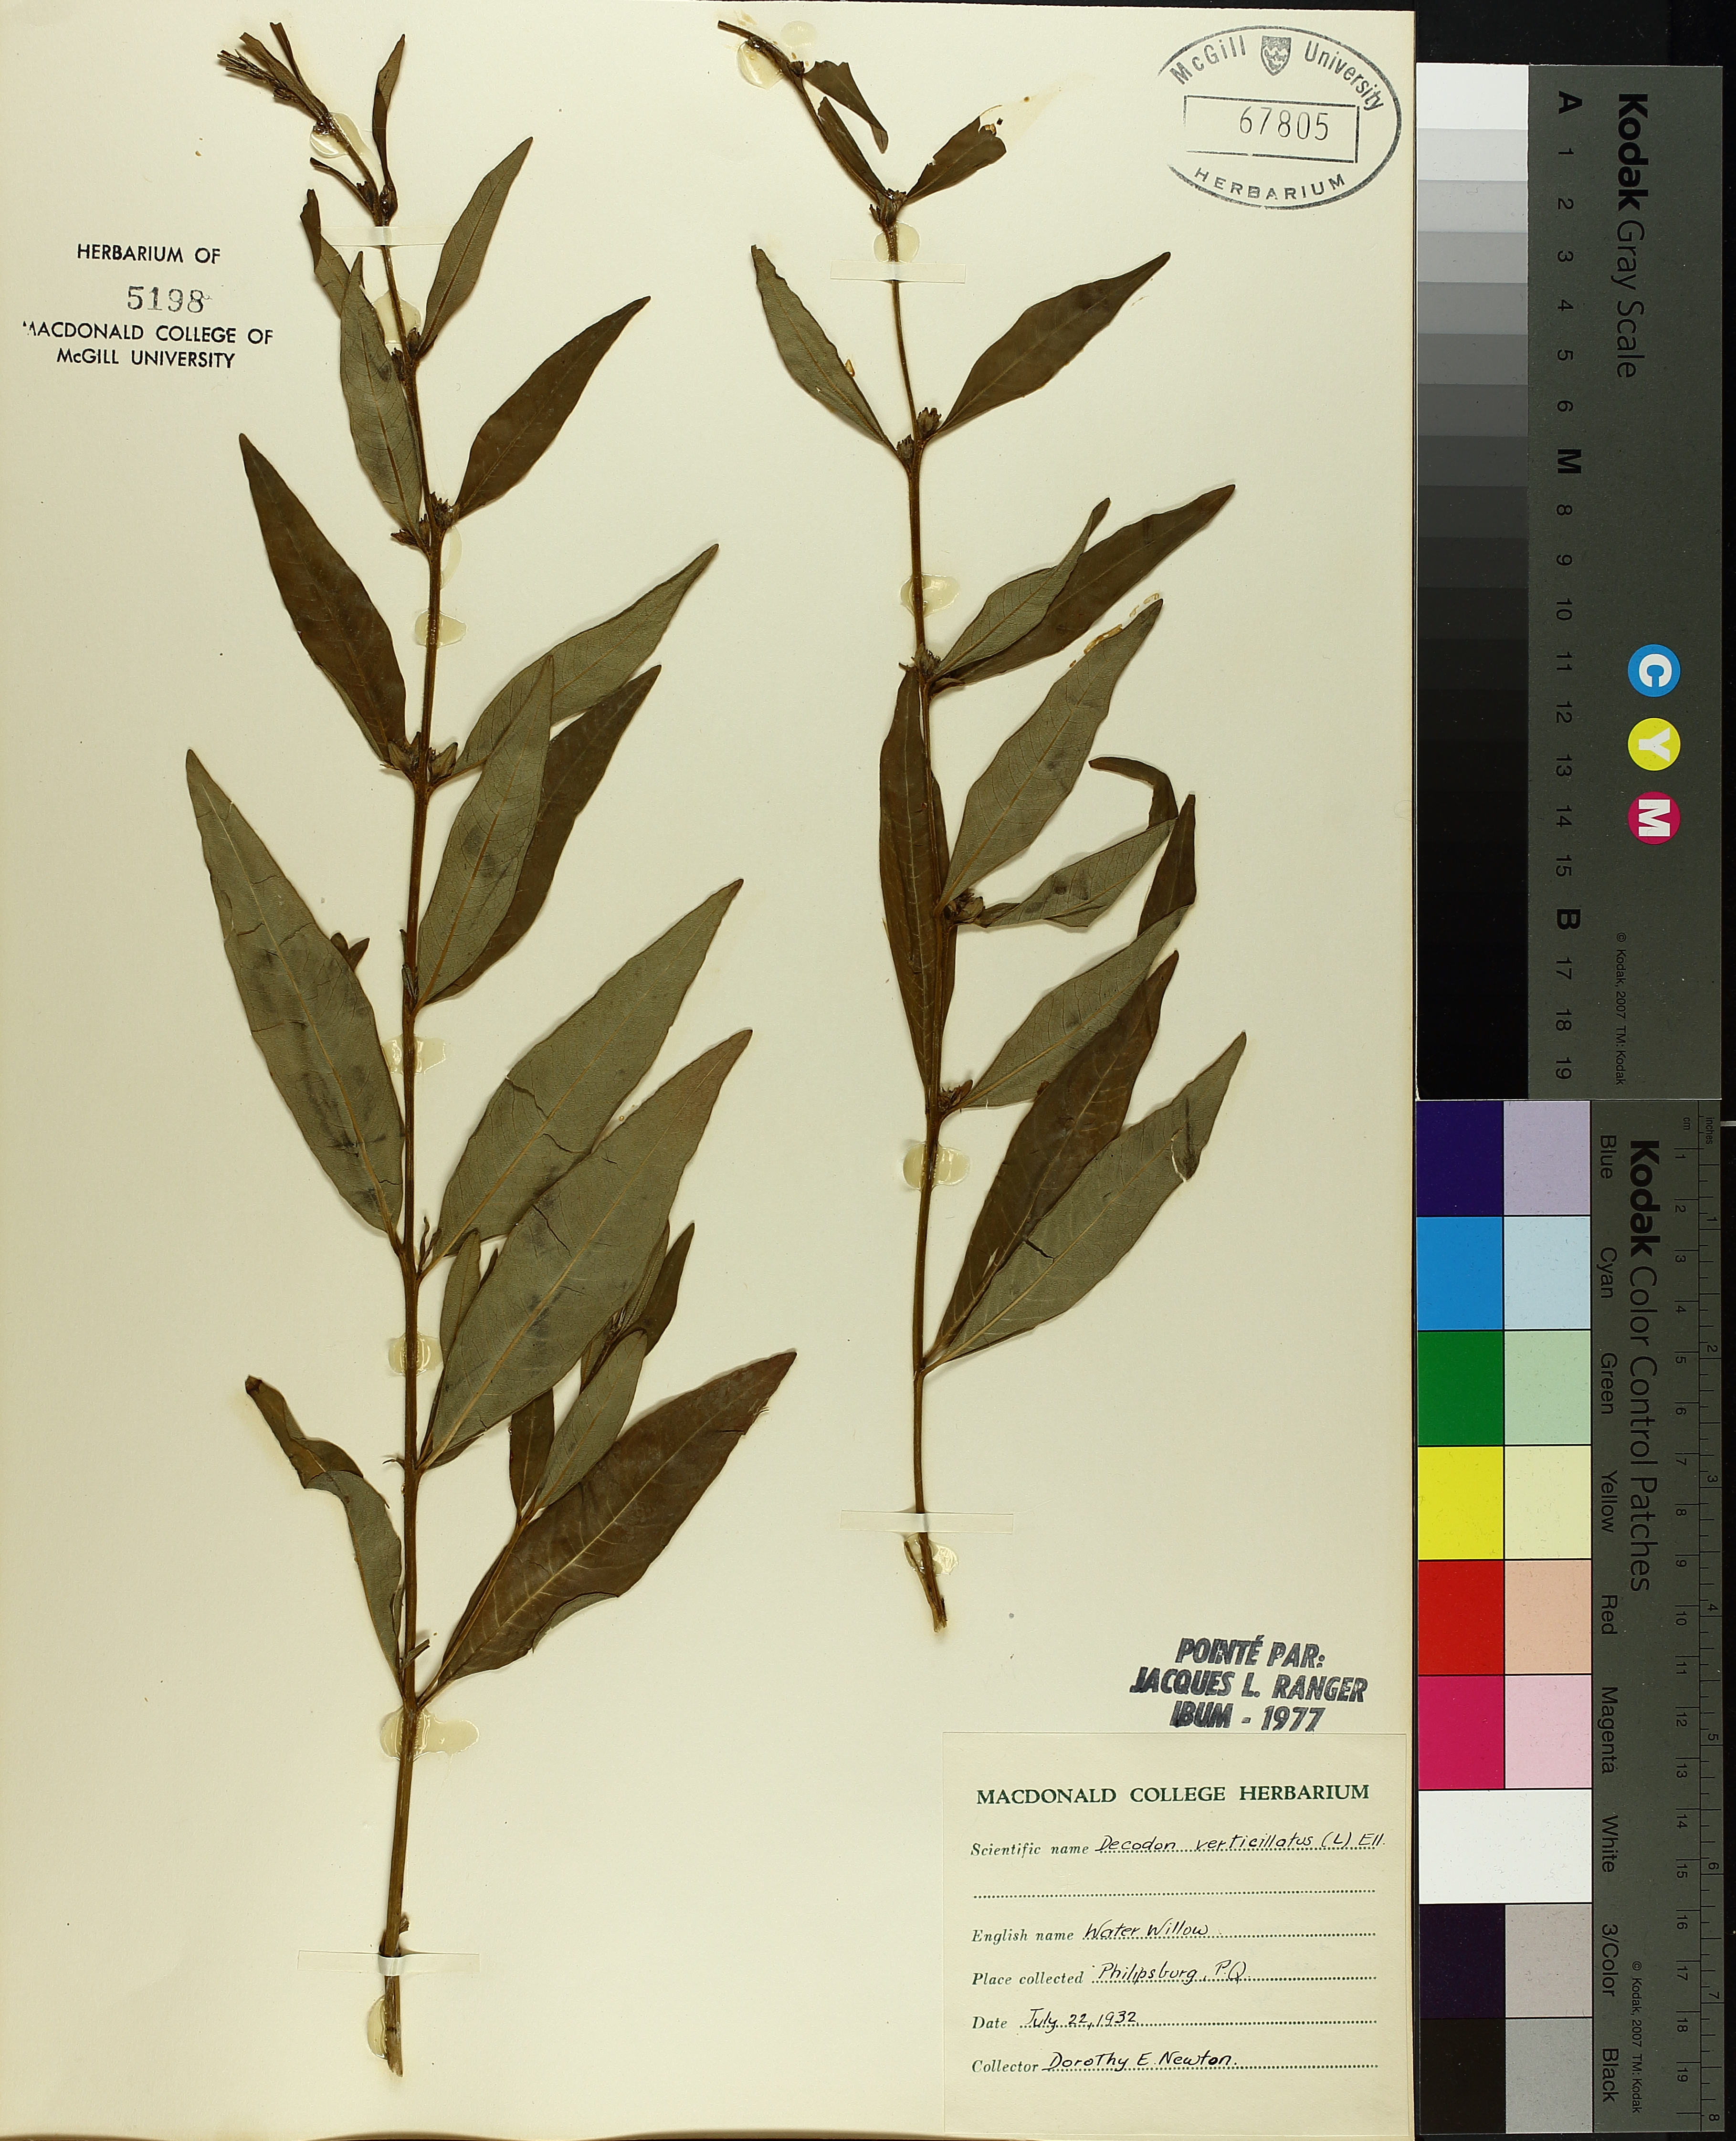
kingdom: Plantae
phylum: Tracheophyta
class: Magnoliopsida
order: Myrtales
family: Lythraceae
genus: Decodon
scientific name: Decodon verticillatus
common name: Hairy swamp loosestrife
